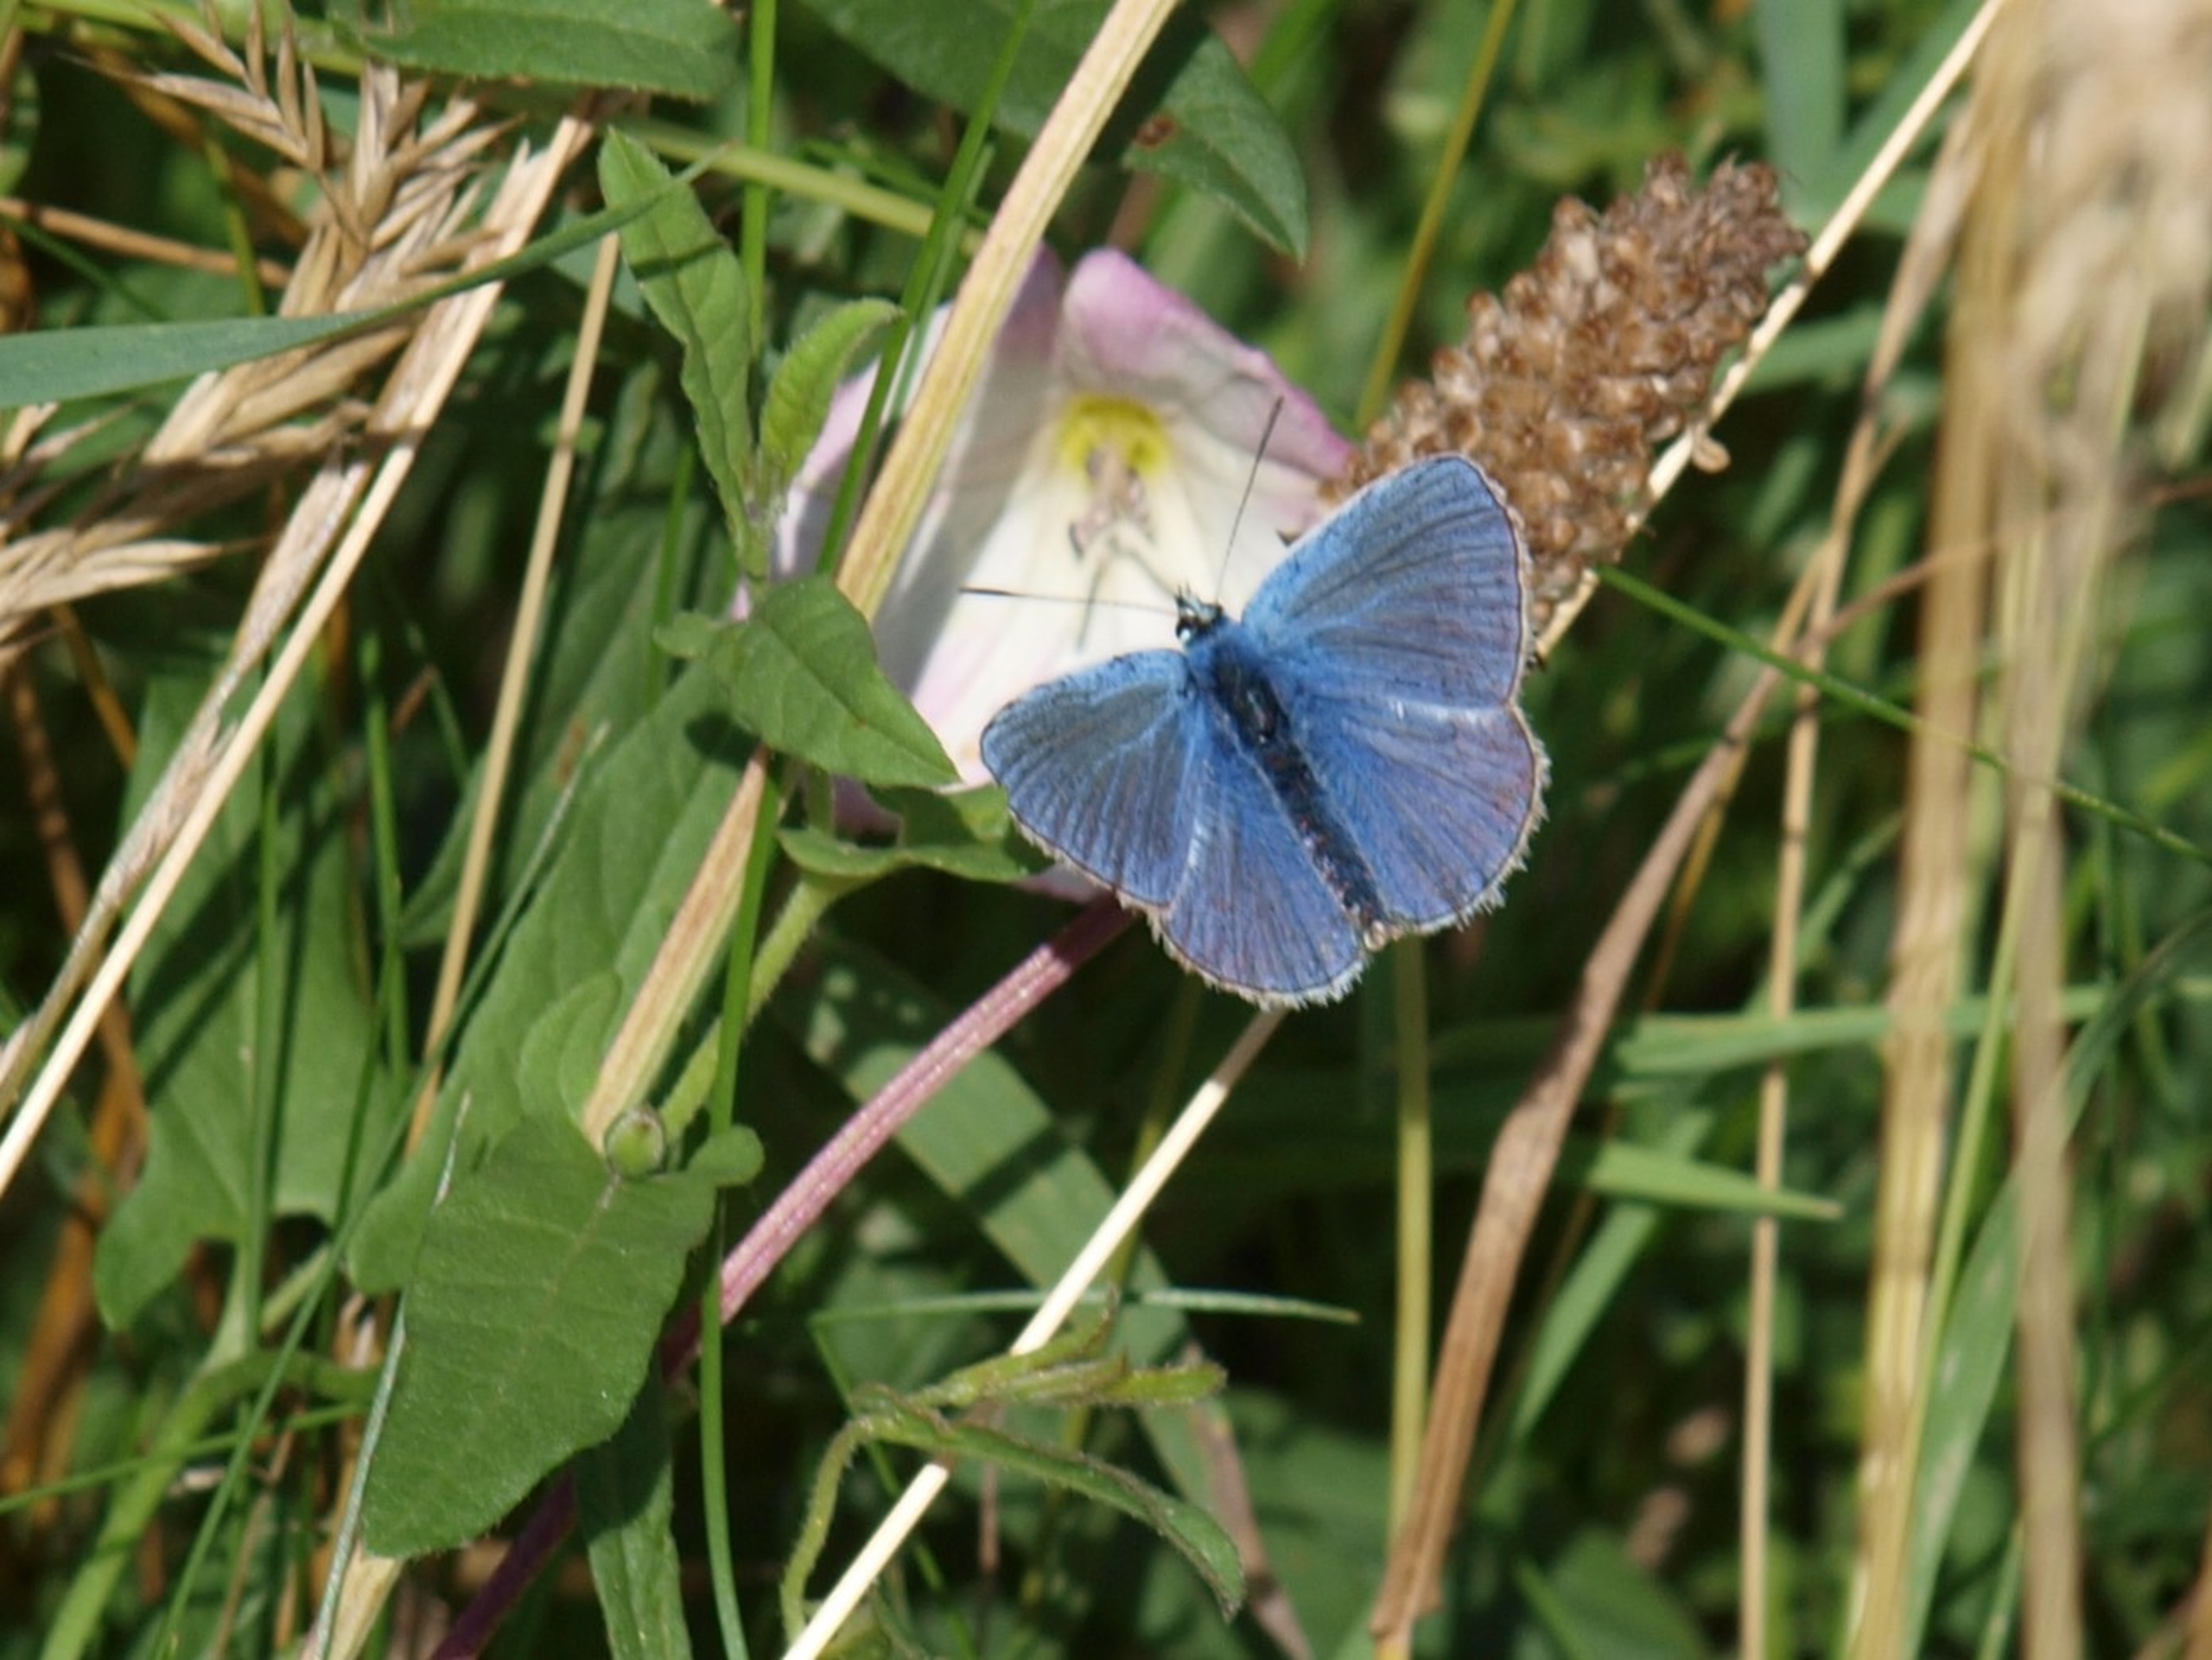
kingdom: Animalia
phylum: Arthropoda
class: Insecta
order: Lepidoptera
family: Lycaenidae
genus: Polyommatus
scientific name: Polyommatus icarus
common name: Almindelig blåfugl
